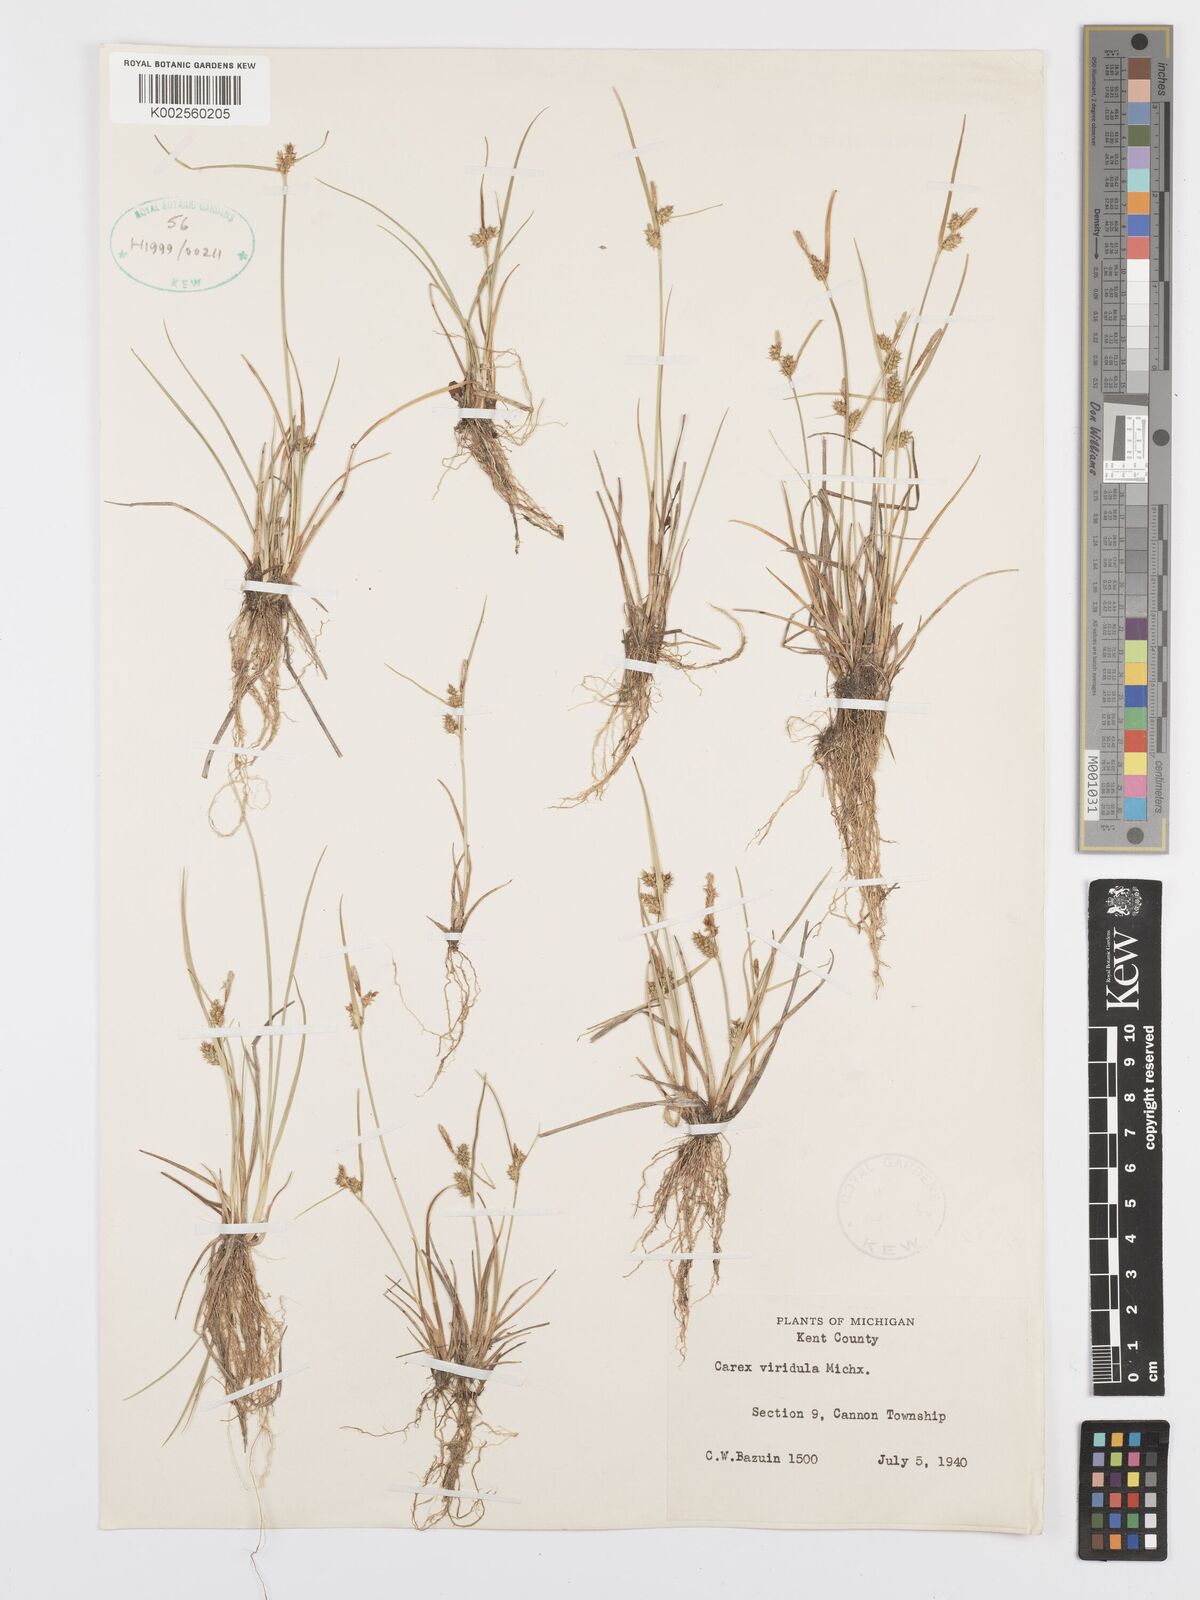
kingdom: Plantae
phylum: Tracheophyta
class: Liliopsida
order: Poales
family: Cyperaceae
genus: Carex
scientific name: Carex oederi
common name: Common & small-fruited yellow-sedge
